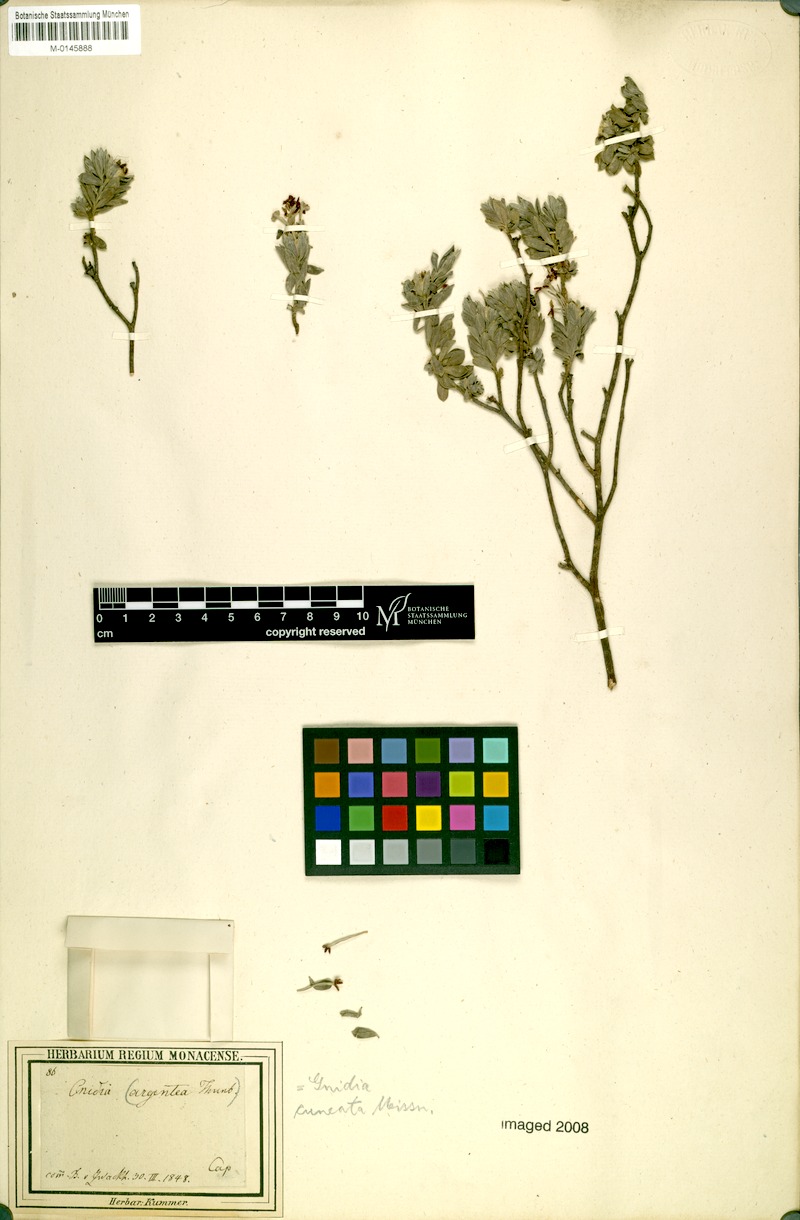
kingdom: Plantae
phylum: Tracheophyta
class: Magnoliopsida
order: Malvales
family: Thymelaeaceae
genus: Gnidia
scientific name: Gnidia cuneata
